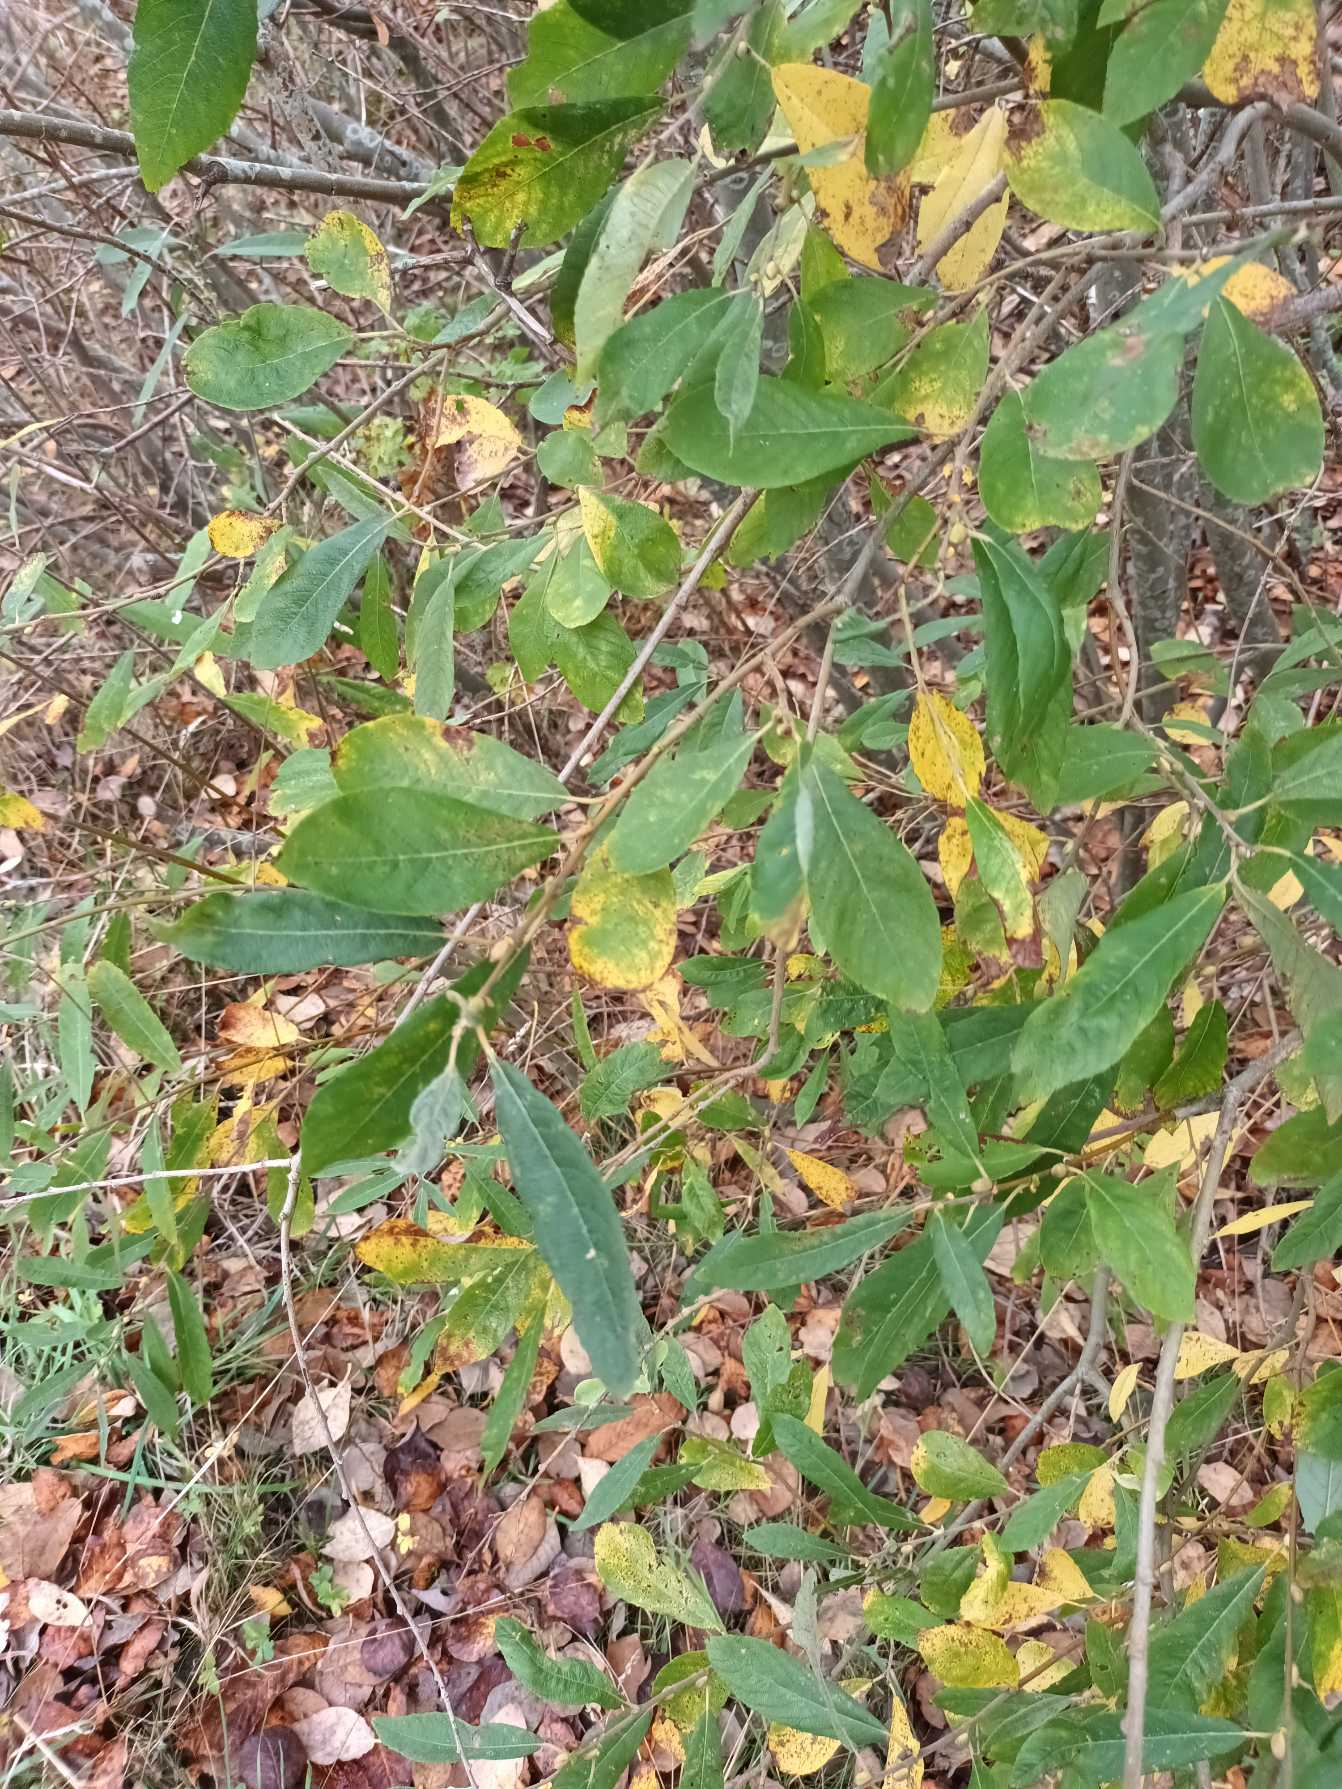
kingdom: Plantae
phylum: Tracheophyta
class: Magnoliopsida
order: Malpighiales
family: Salicaceae
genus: Salix
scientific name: Salix atrocinerea
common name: Rust-pil
